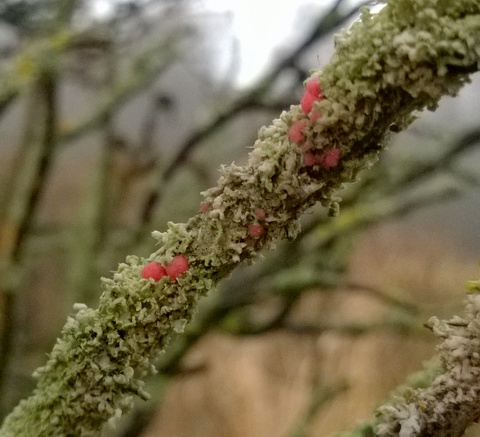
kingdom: Fungi
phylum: Ascomycota
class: Sordariomycetes
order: Hypocreales
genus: Illosporiopsis
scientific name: Illosporiopsis christiansenii
